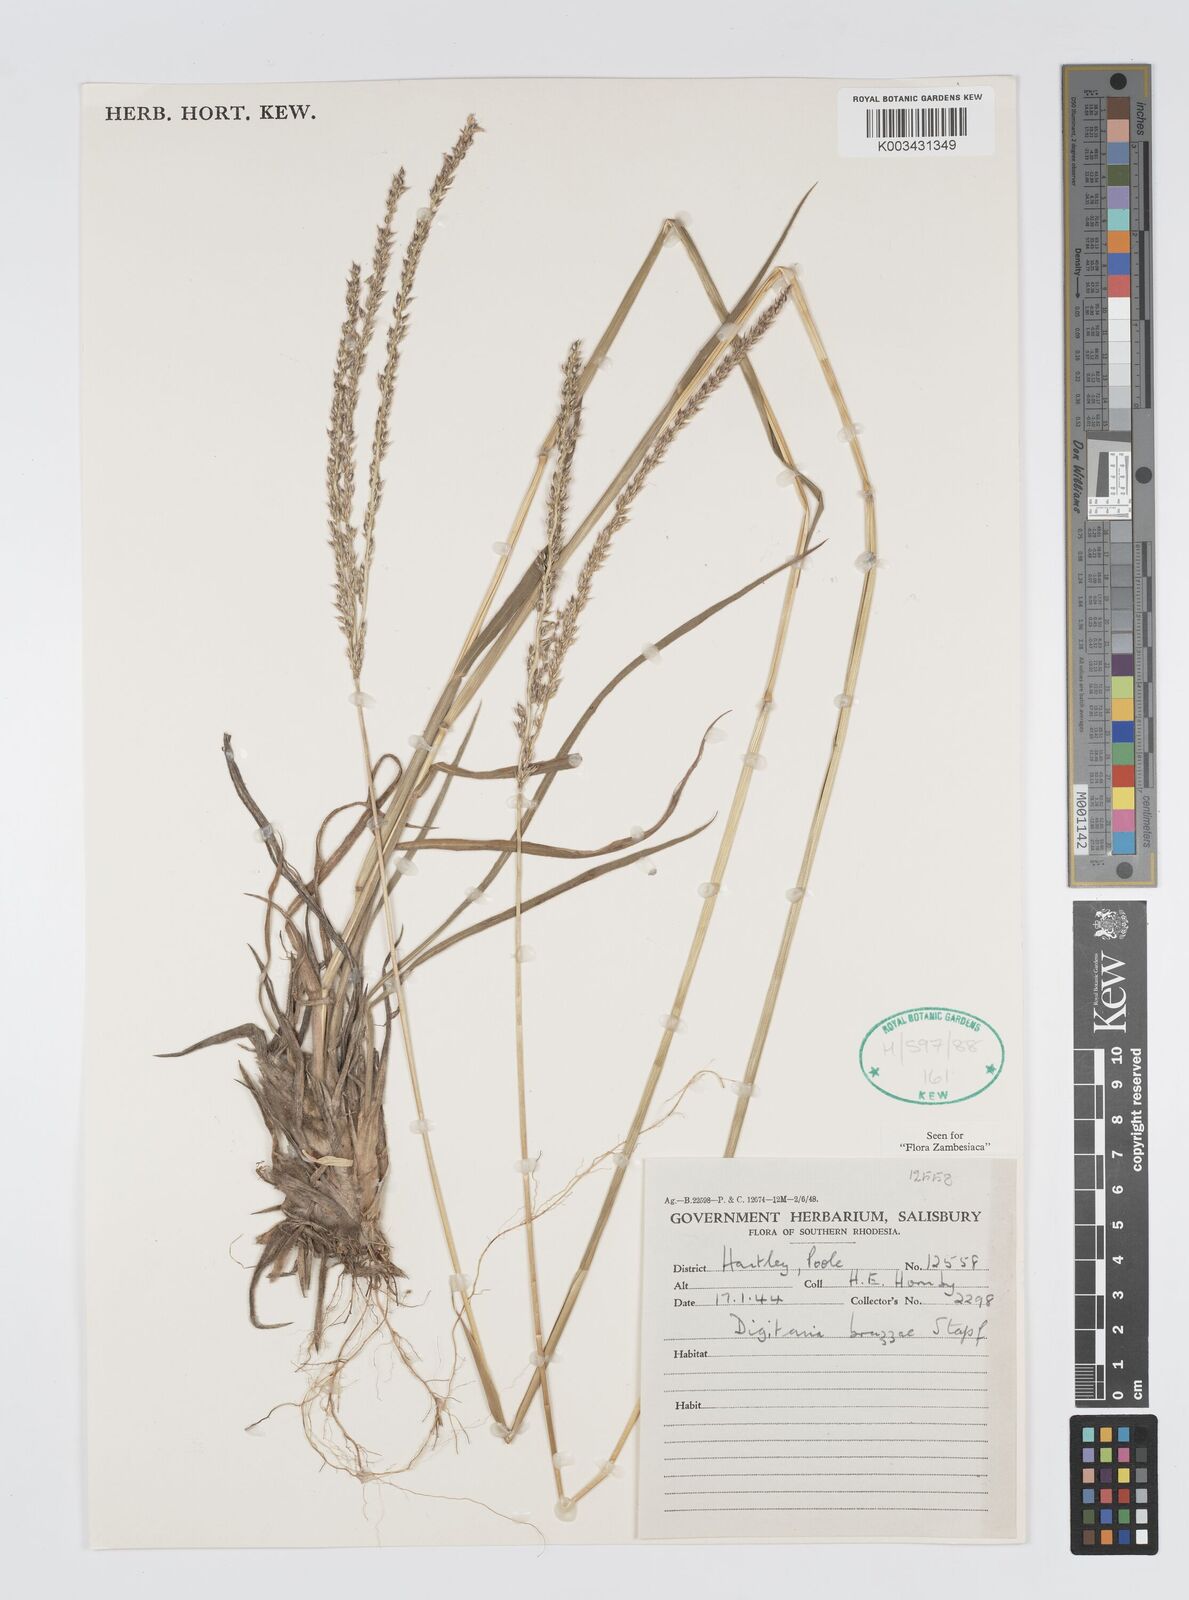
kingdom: Plantae
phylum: Tracheophyta
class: Liliopsida
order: Poales
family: Poaceae
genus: Digitaria
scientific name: Digitaria brazzae
